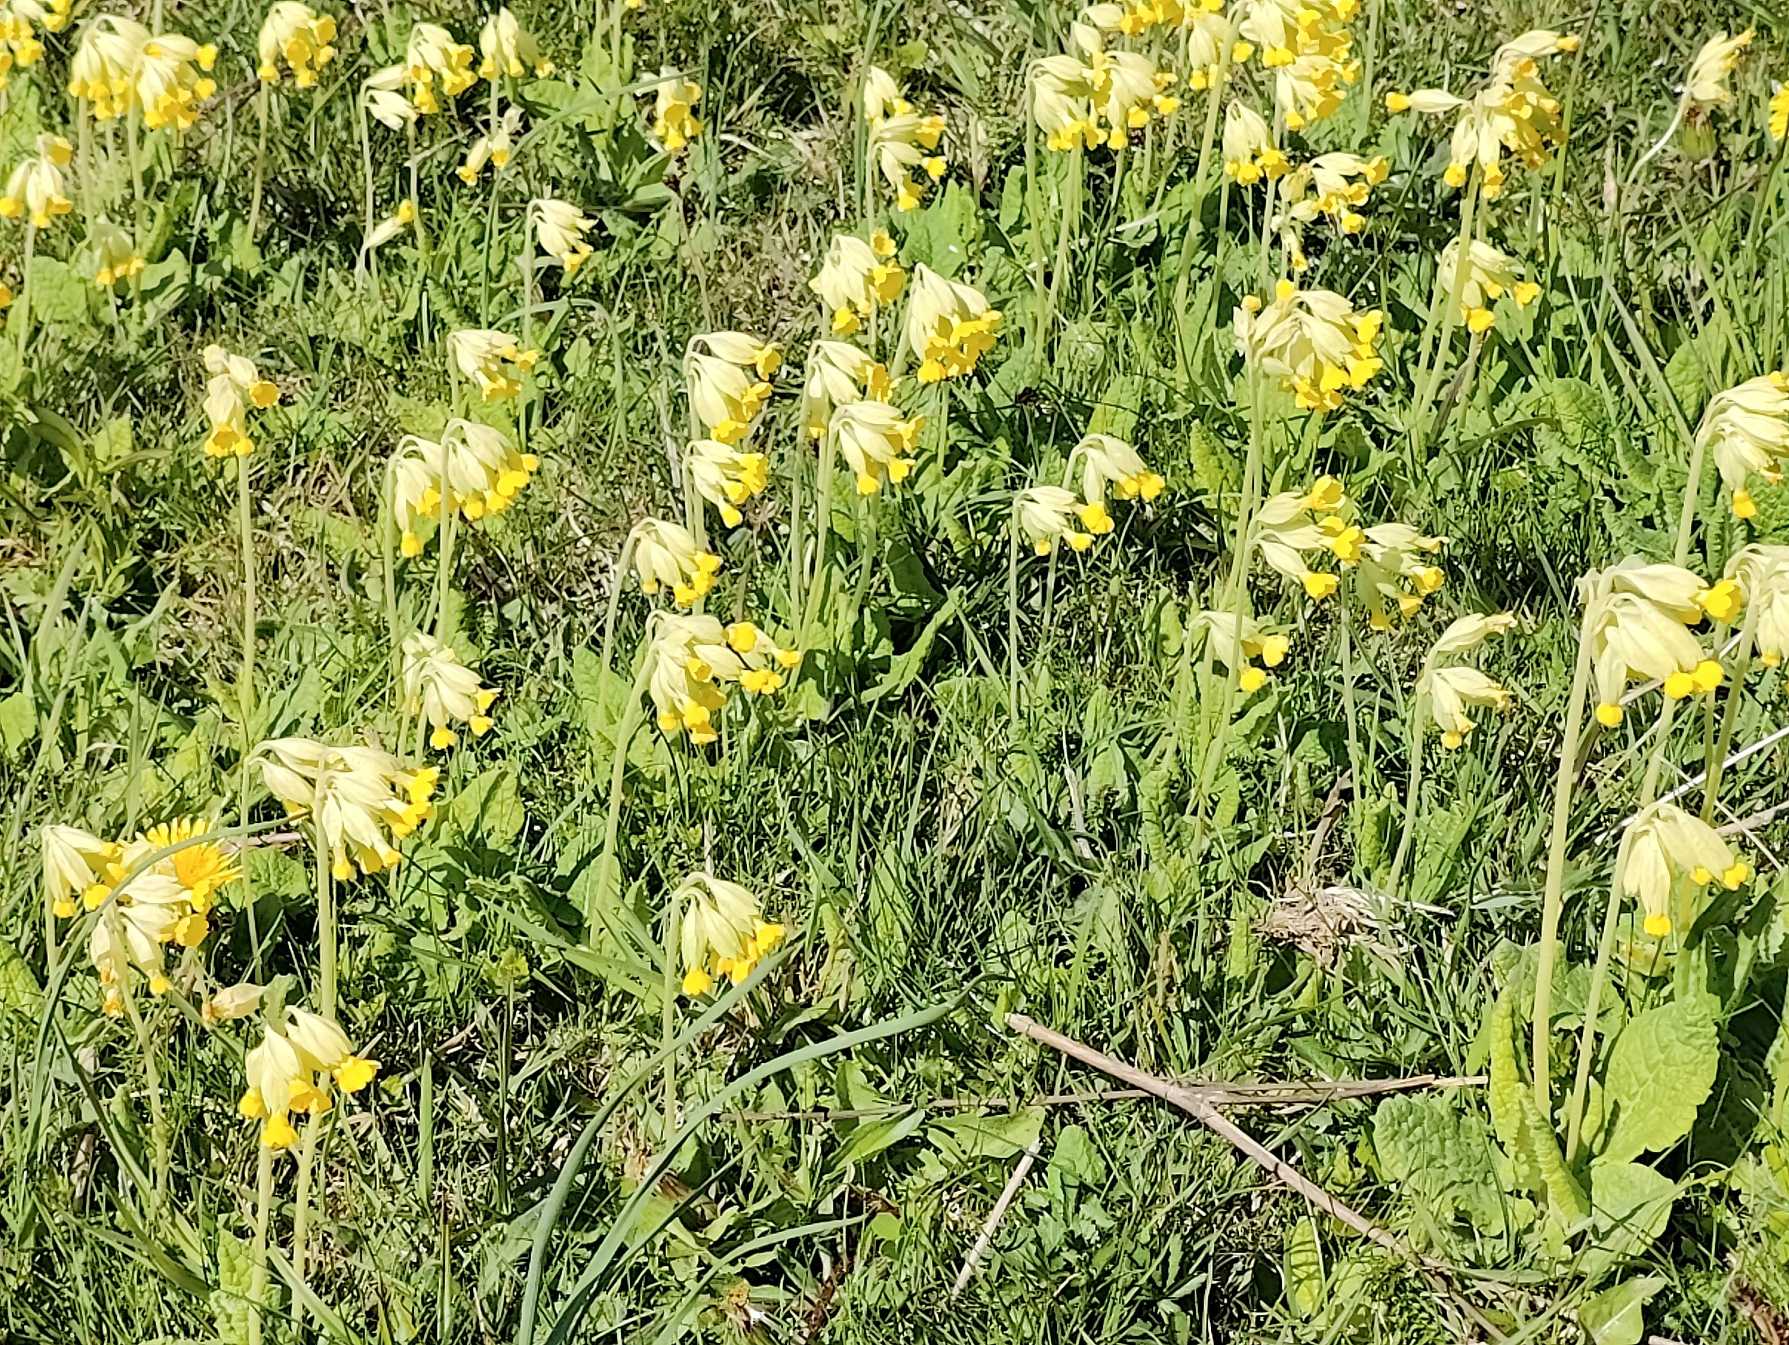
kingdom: Plantae
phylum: Tracheophyta
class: Magnoliopsida
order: Ericales
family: Primulaceae
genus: Primula
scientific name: Primula veris
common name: Hulkravet kodriver
